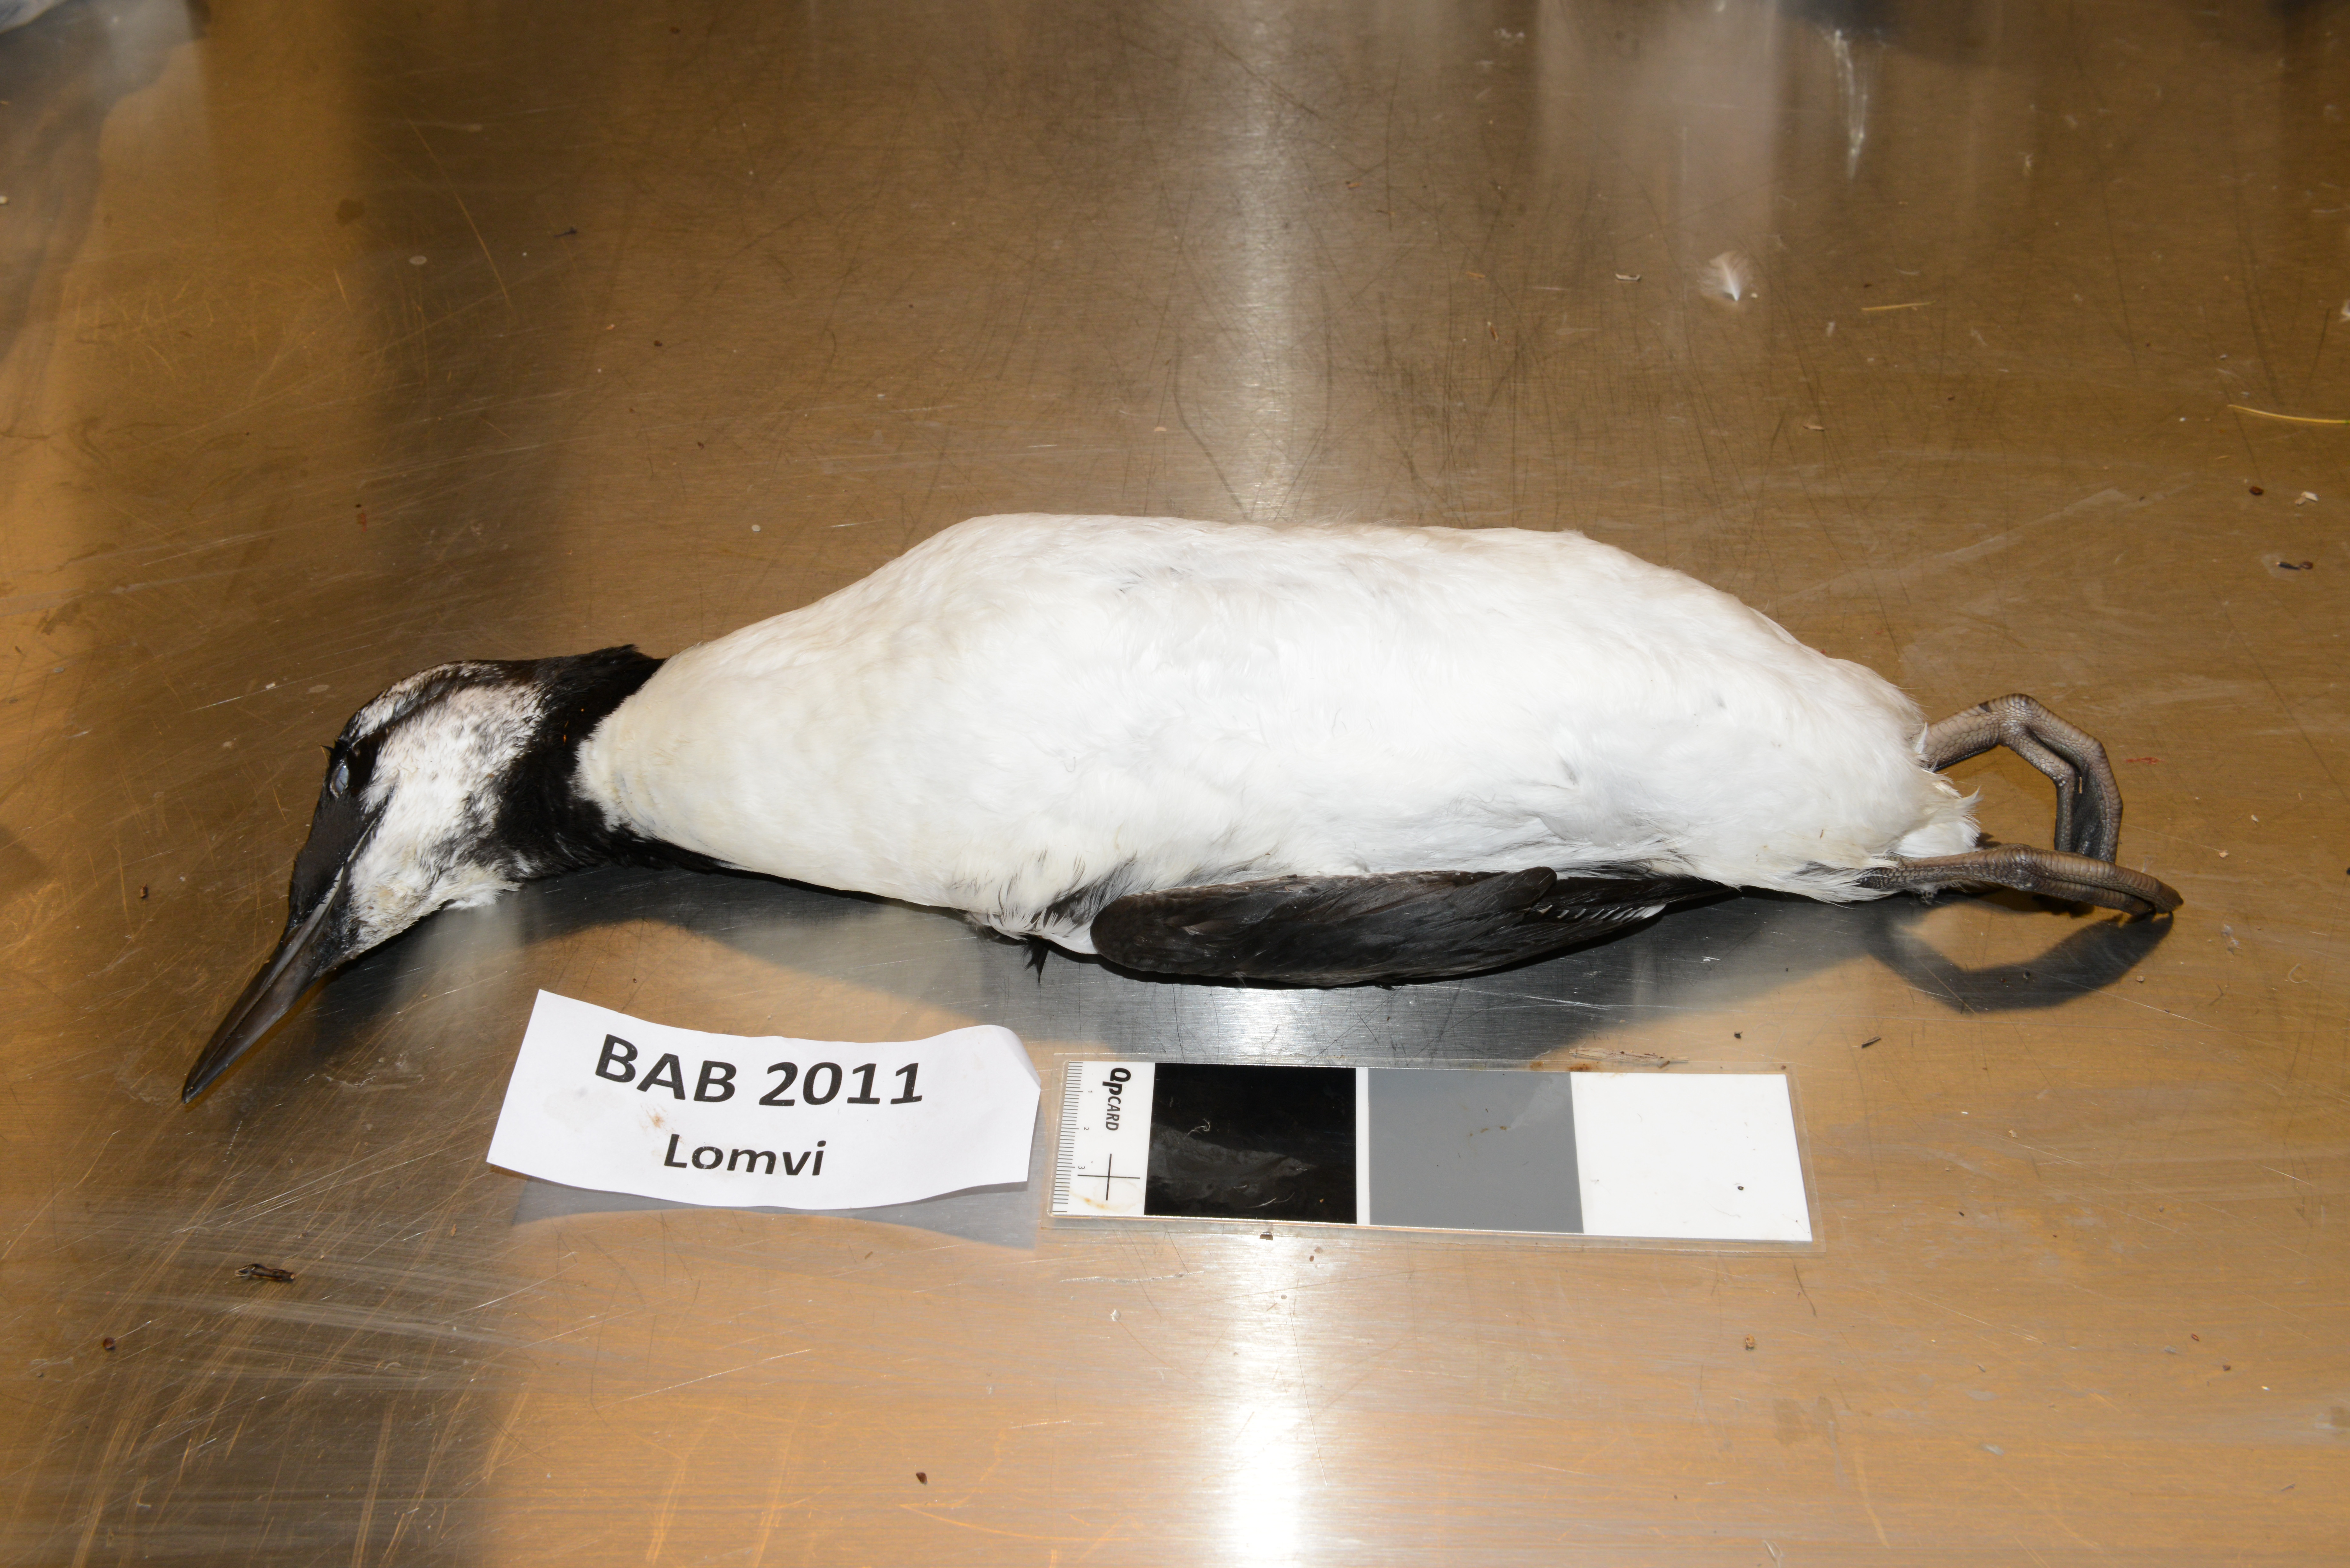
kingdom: Animalia
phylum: Chordata
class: Aves
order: Charadriiformes
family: Alcidae
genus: Uria
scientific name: Uria aalge
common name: Common murre
